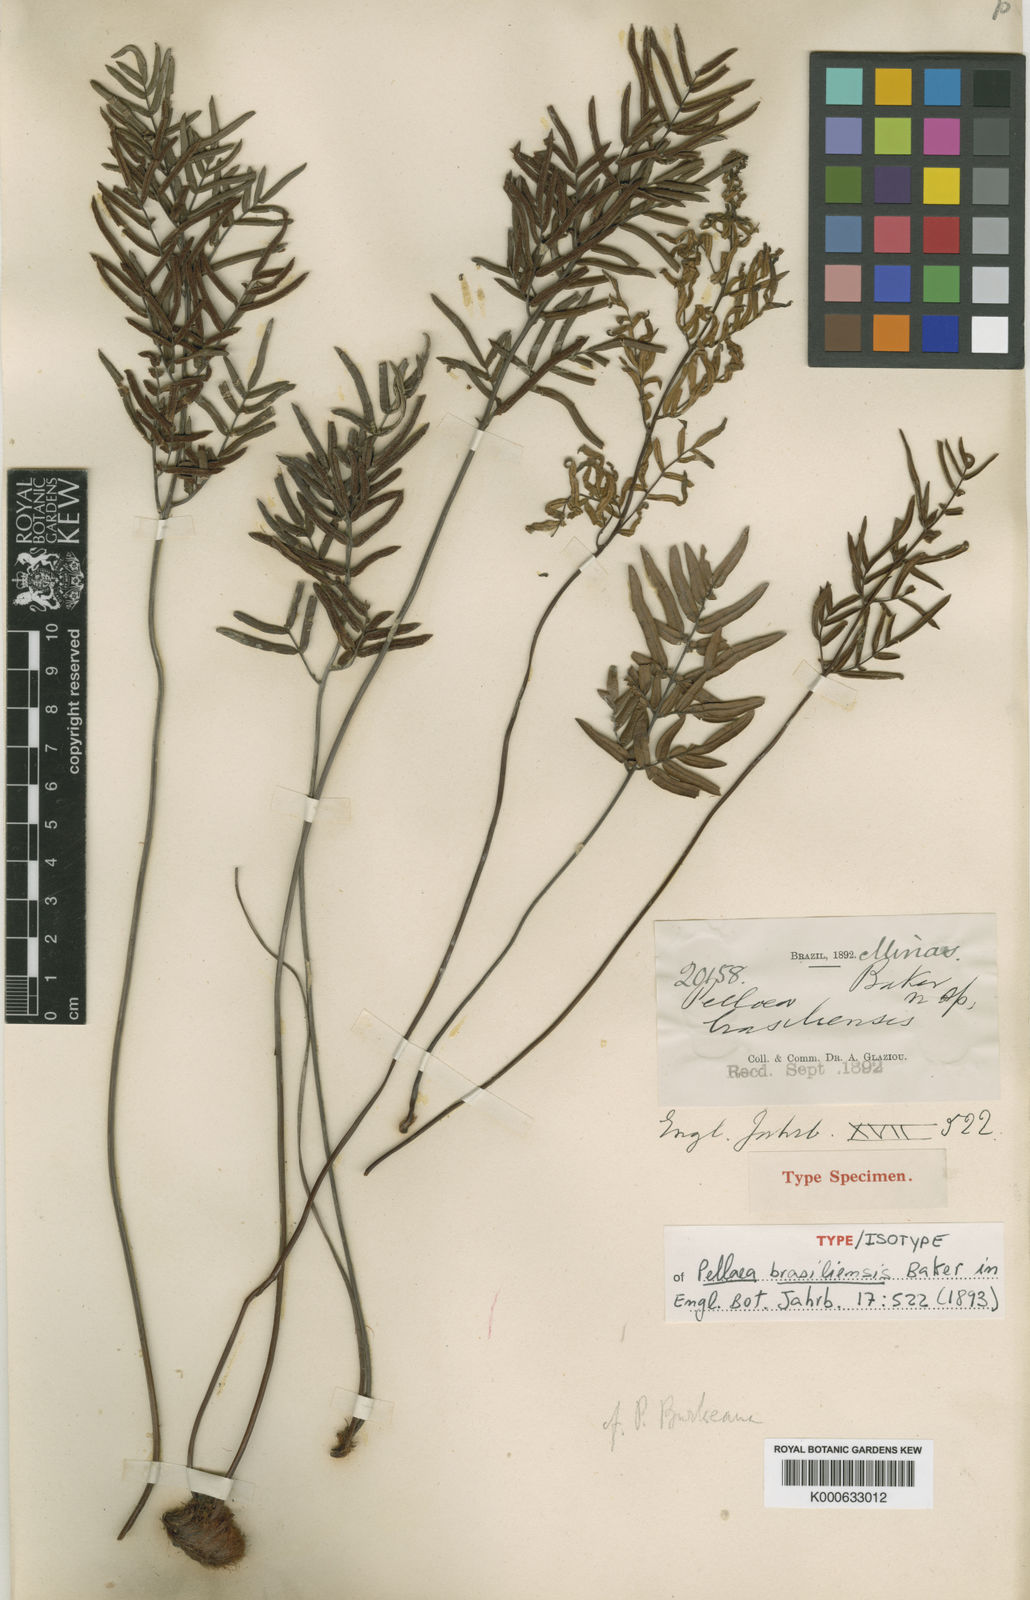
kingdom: Plantae
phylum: Tracheophyta
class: Polypodiopsida
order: Polypodiales
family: Pteridaceae
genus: Ormopteris
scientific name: Ormopteris riedelii
